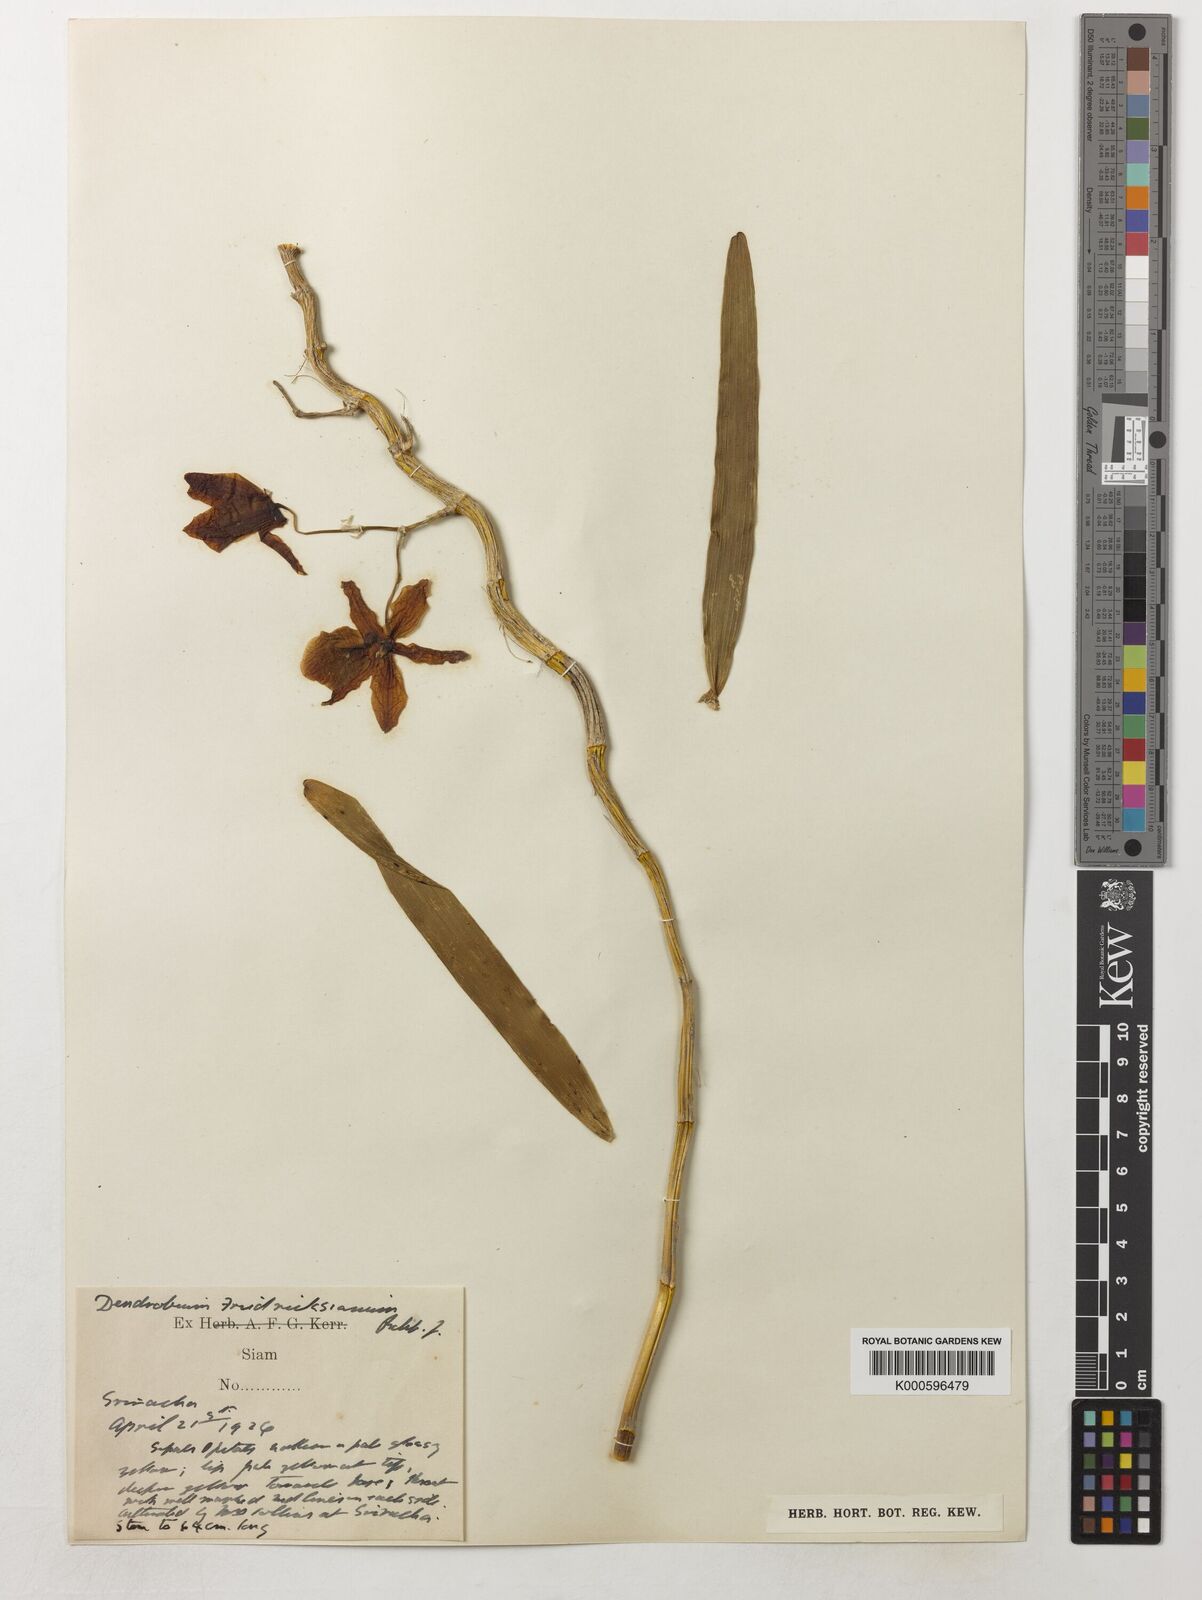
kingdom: Plantae
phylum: Tracheophyta
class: Liliopsida
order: Asparagales
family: Orchidaceae
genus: Dendrobium
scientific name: Dendrobium friedericksianum
